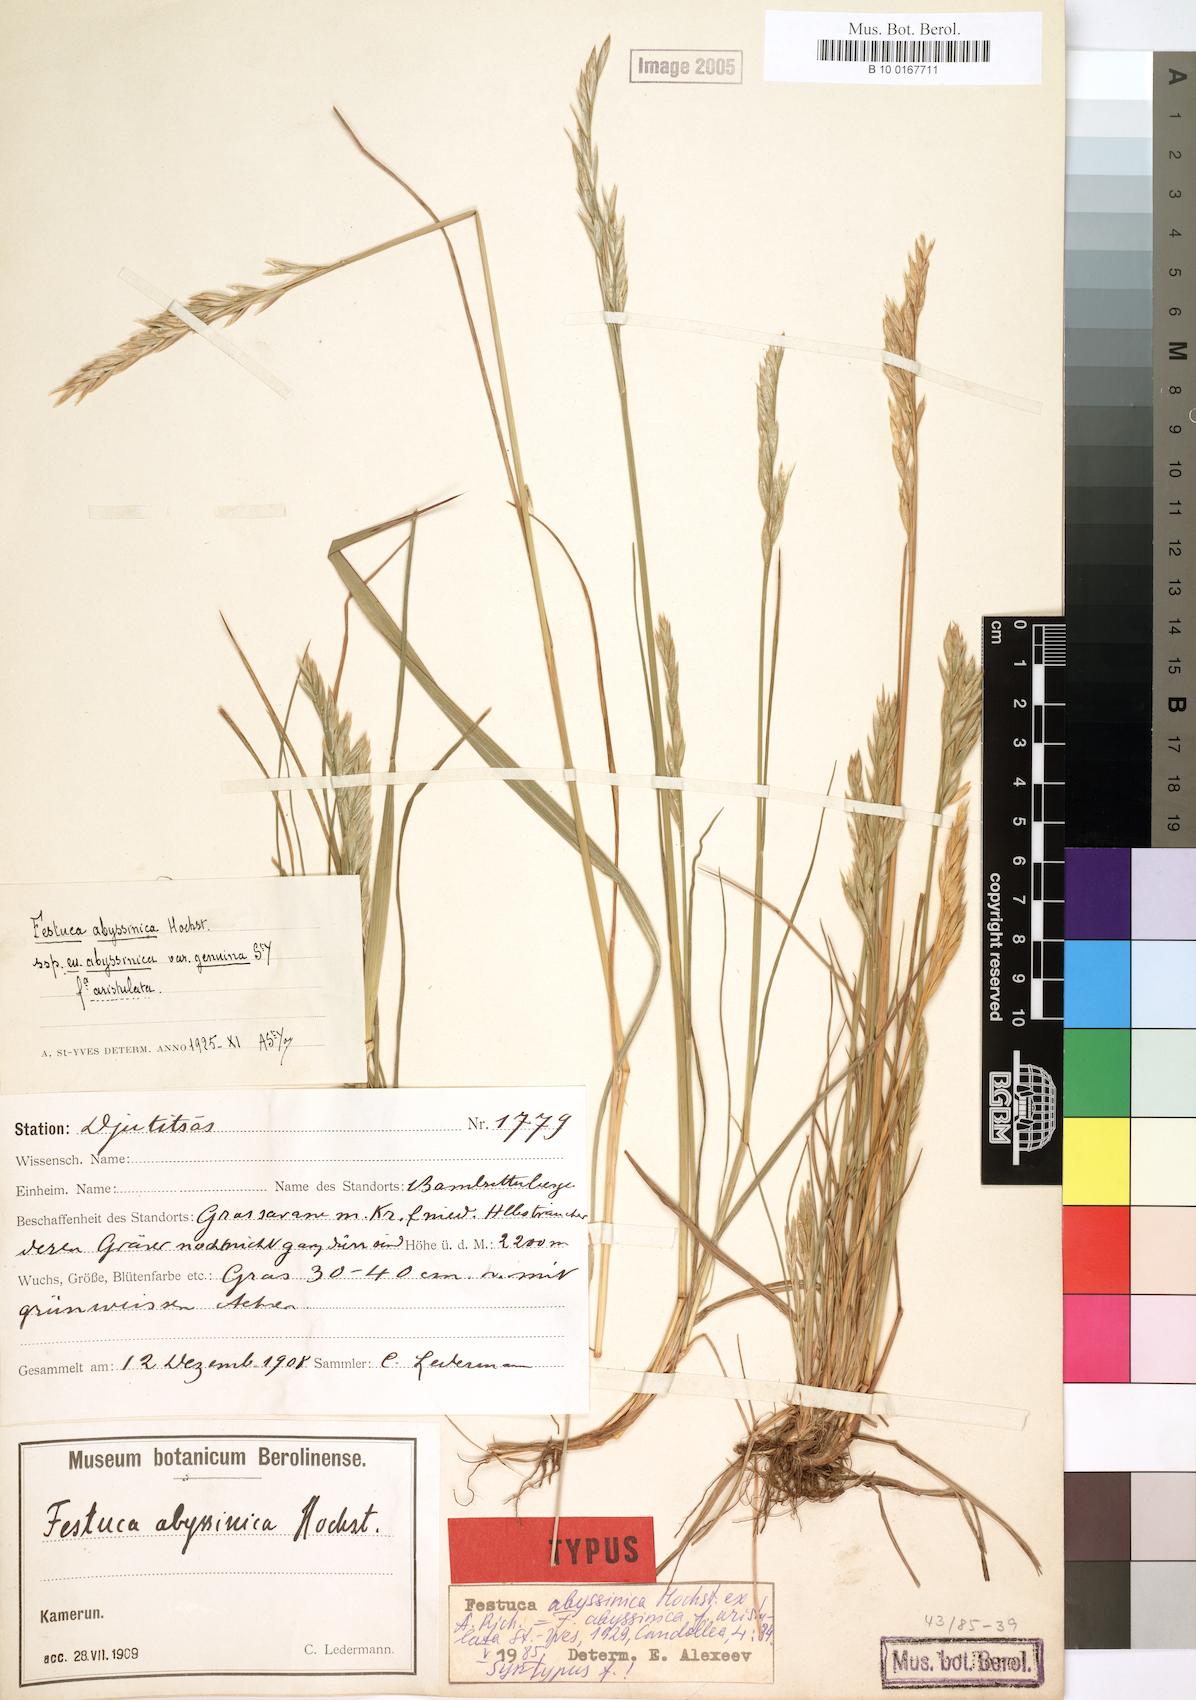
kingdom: Plantae
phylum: Tracheophyta
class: Liliopsida
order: Poales
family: Poaceae
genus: Festuca
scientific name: Festuca abyssinica
